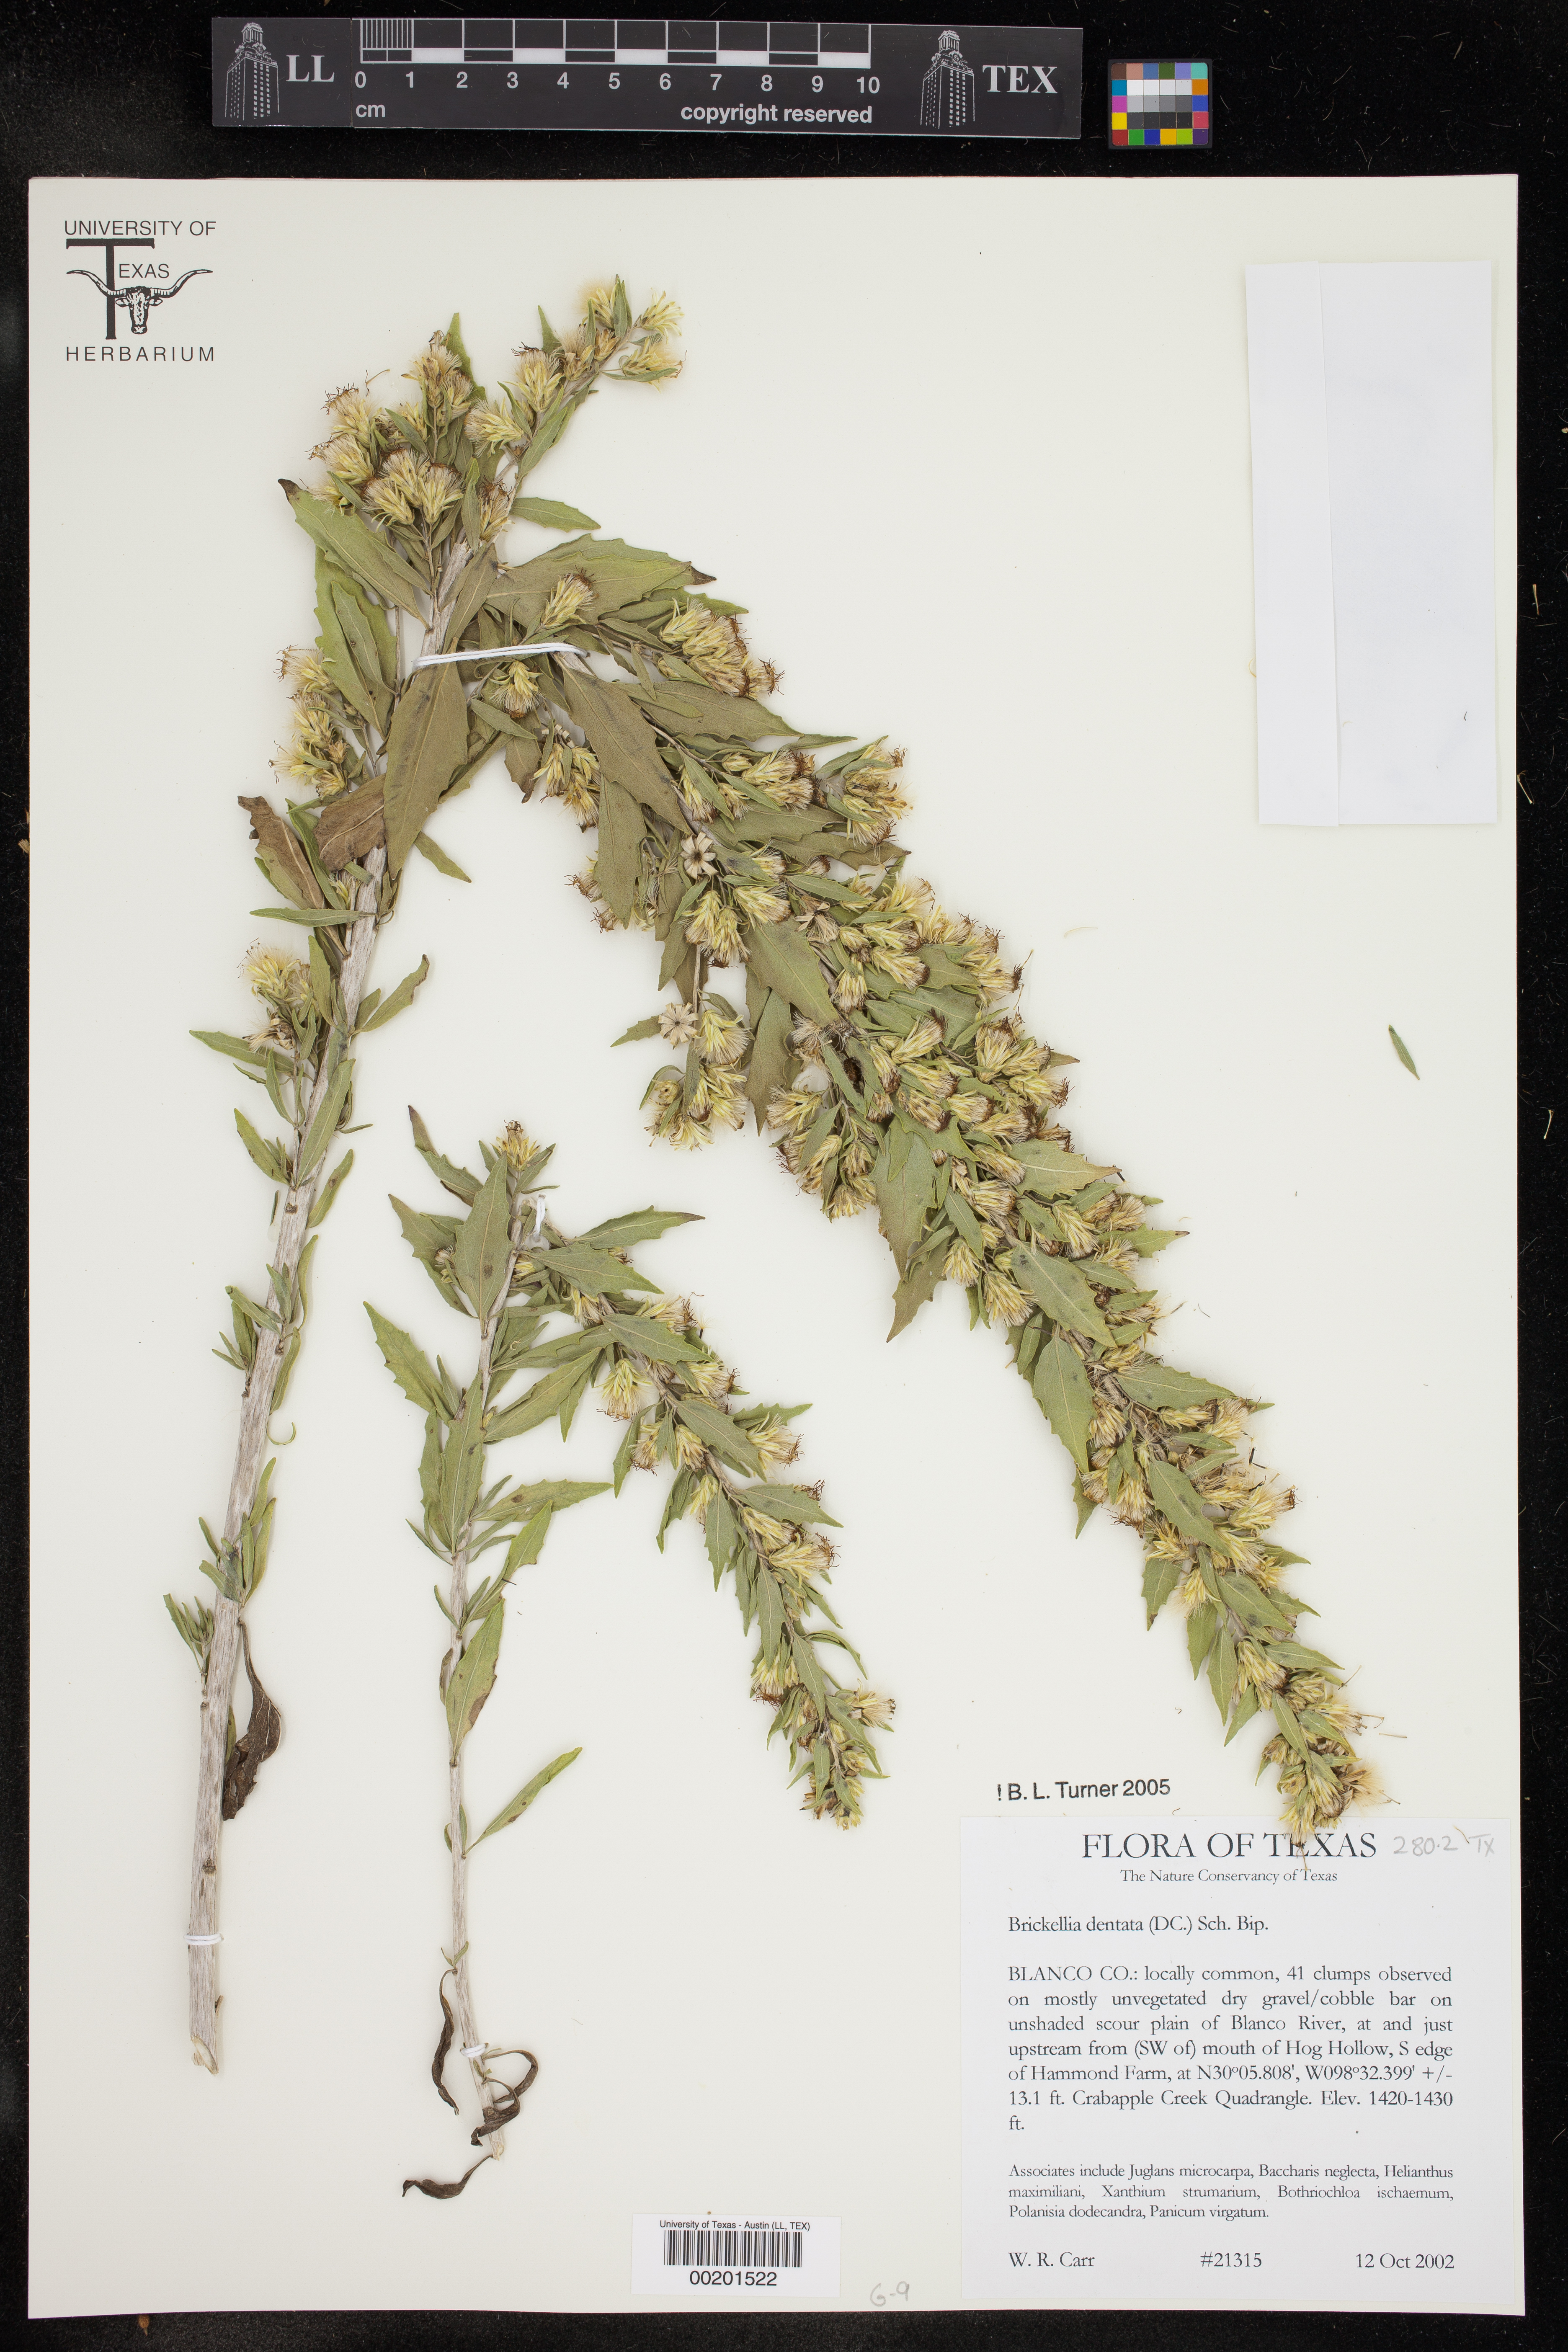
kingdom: Plantae
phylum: Tracheophyta
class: Magnoliopsida
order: Asterales
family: Asteraceae
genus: Brickellia
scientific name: Brickellia dentata
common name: Leafy brickellbush
